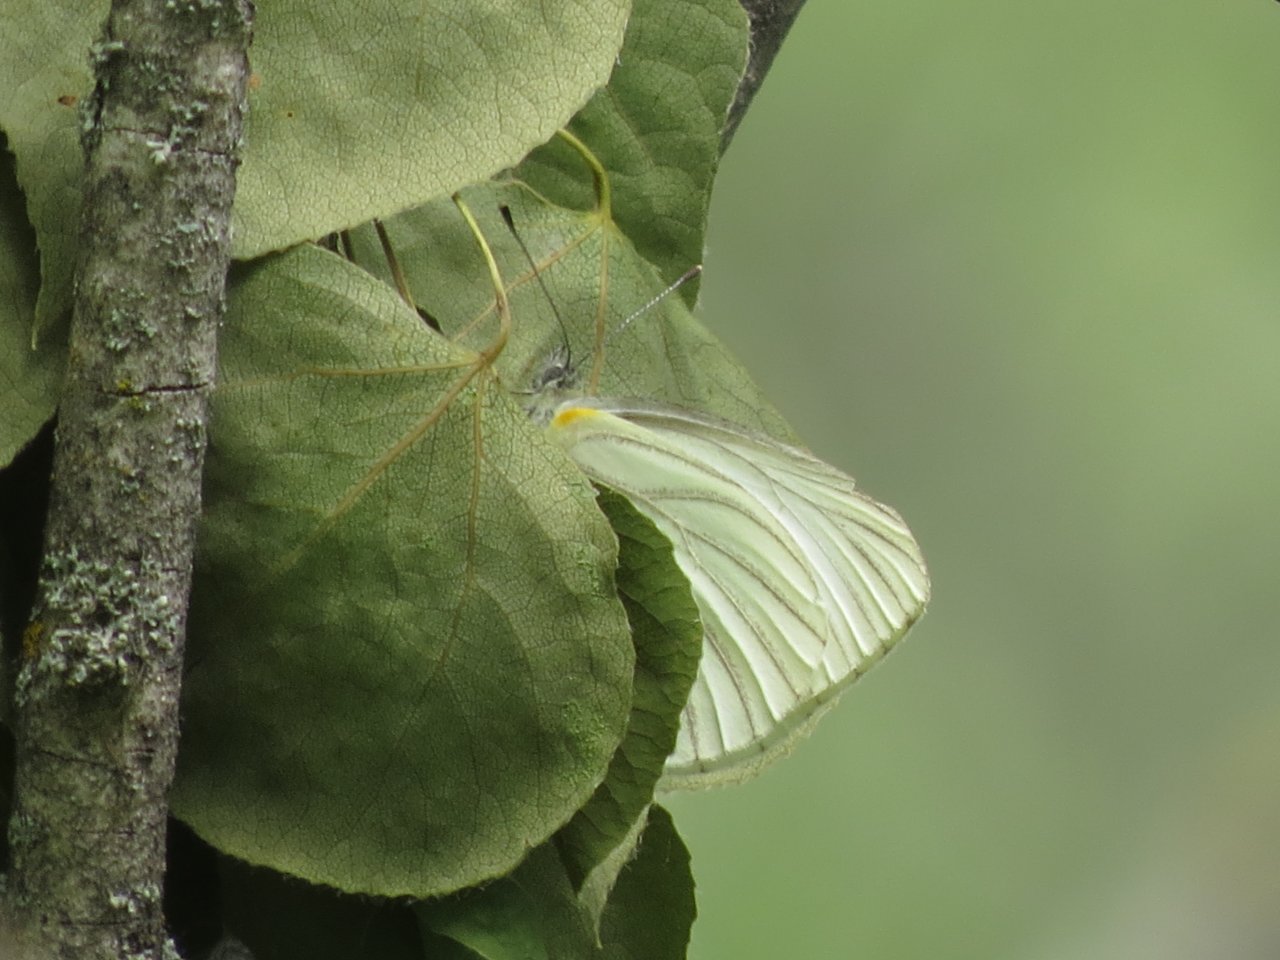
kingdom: Animalia
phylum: Arthropoda
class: Insecta
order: Lepidoptera
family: Pieridae
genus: Pieris
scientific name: Pieris oleracea
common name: Mustard White
